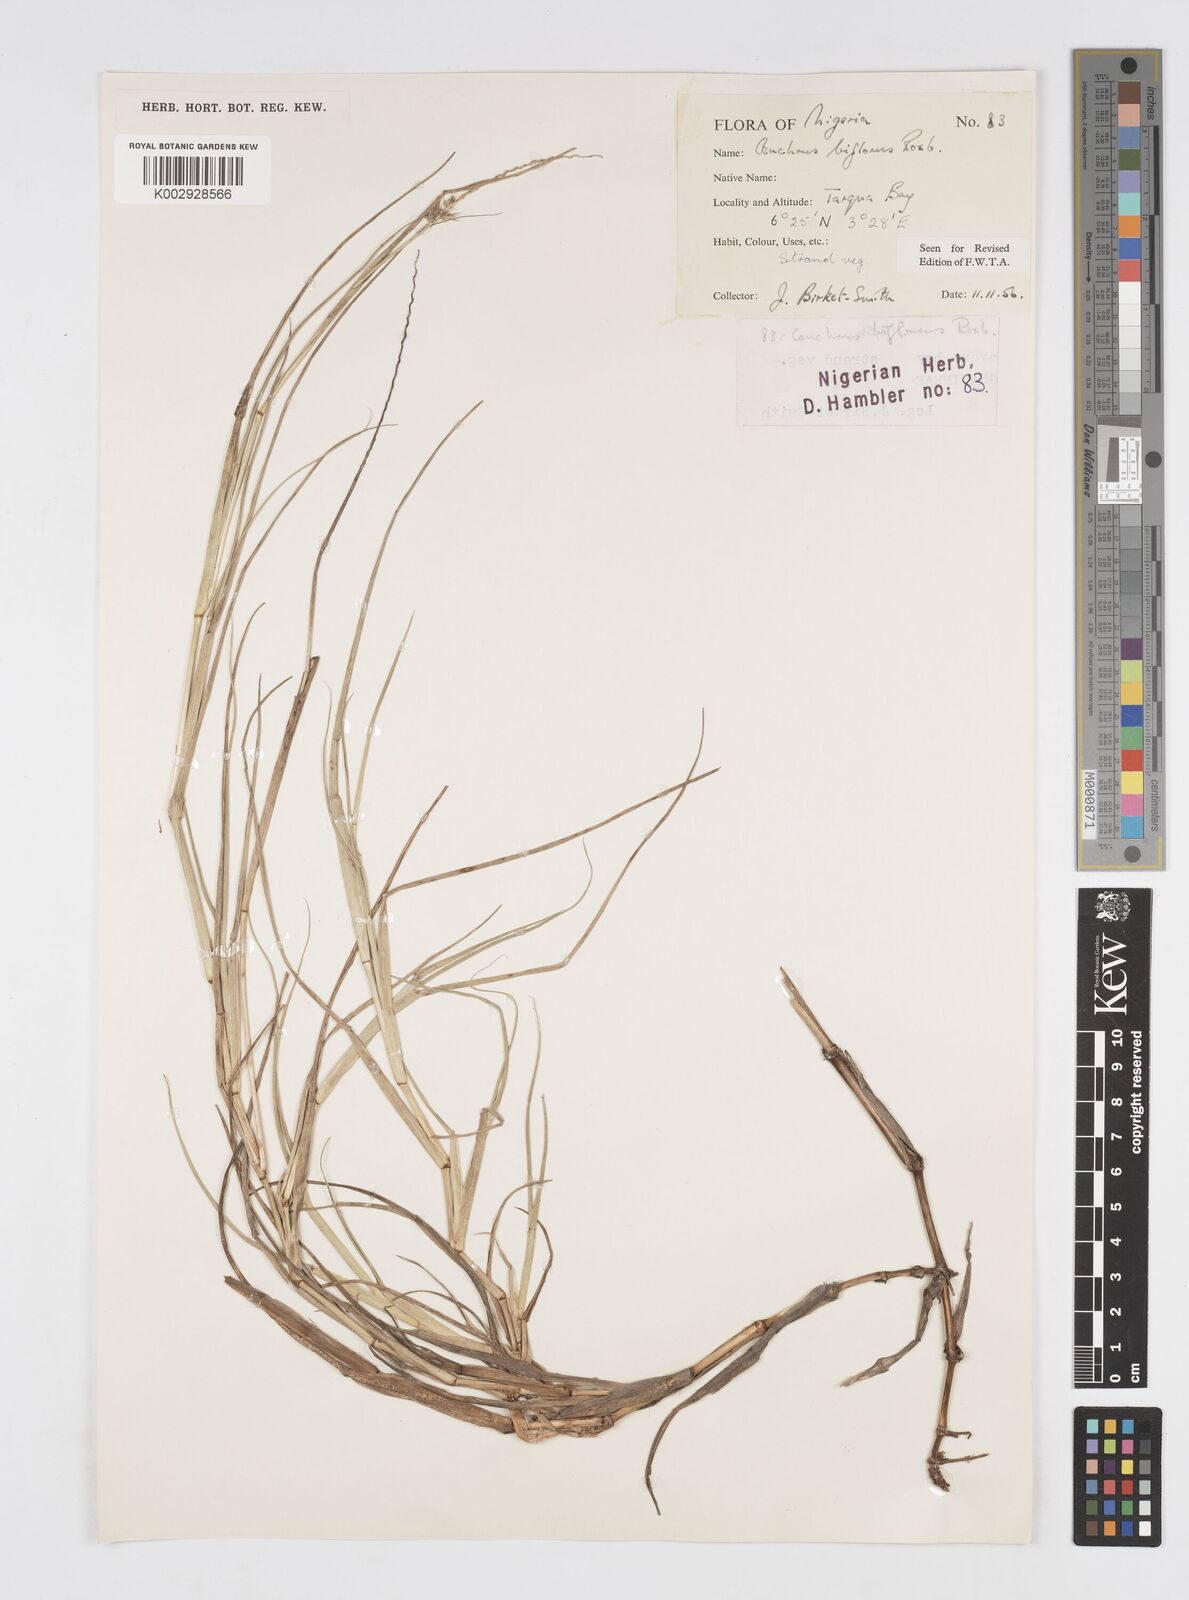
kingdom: Plantae
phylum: Tracheophyta
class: Liliopsida
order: Poales
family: Poaceae
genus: Cenchrus
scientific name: Cenchrus biflorus
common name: Indian sandbur
